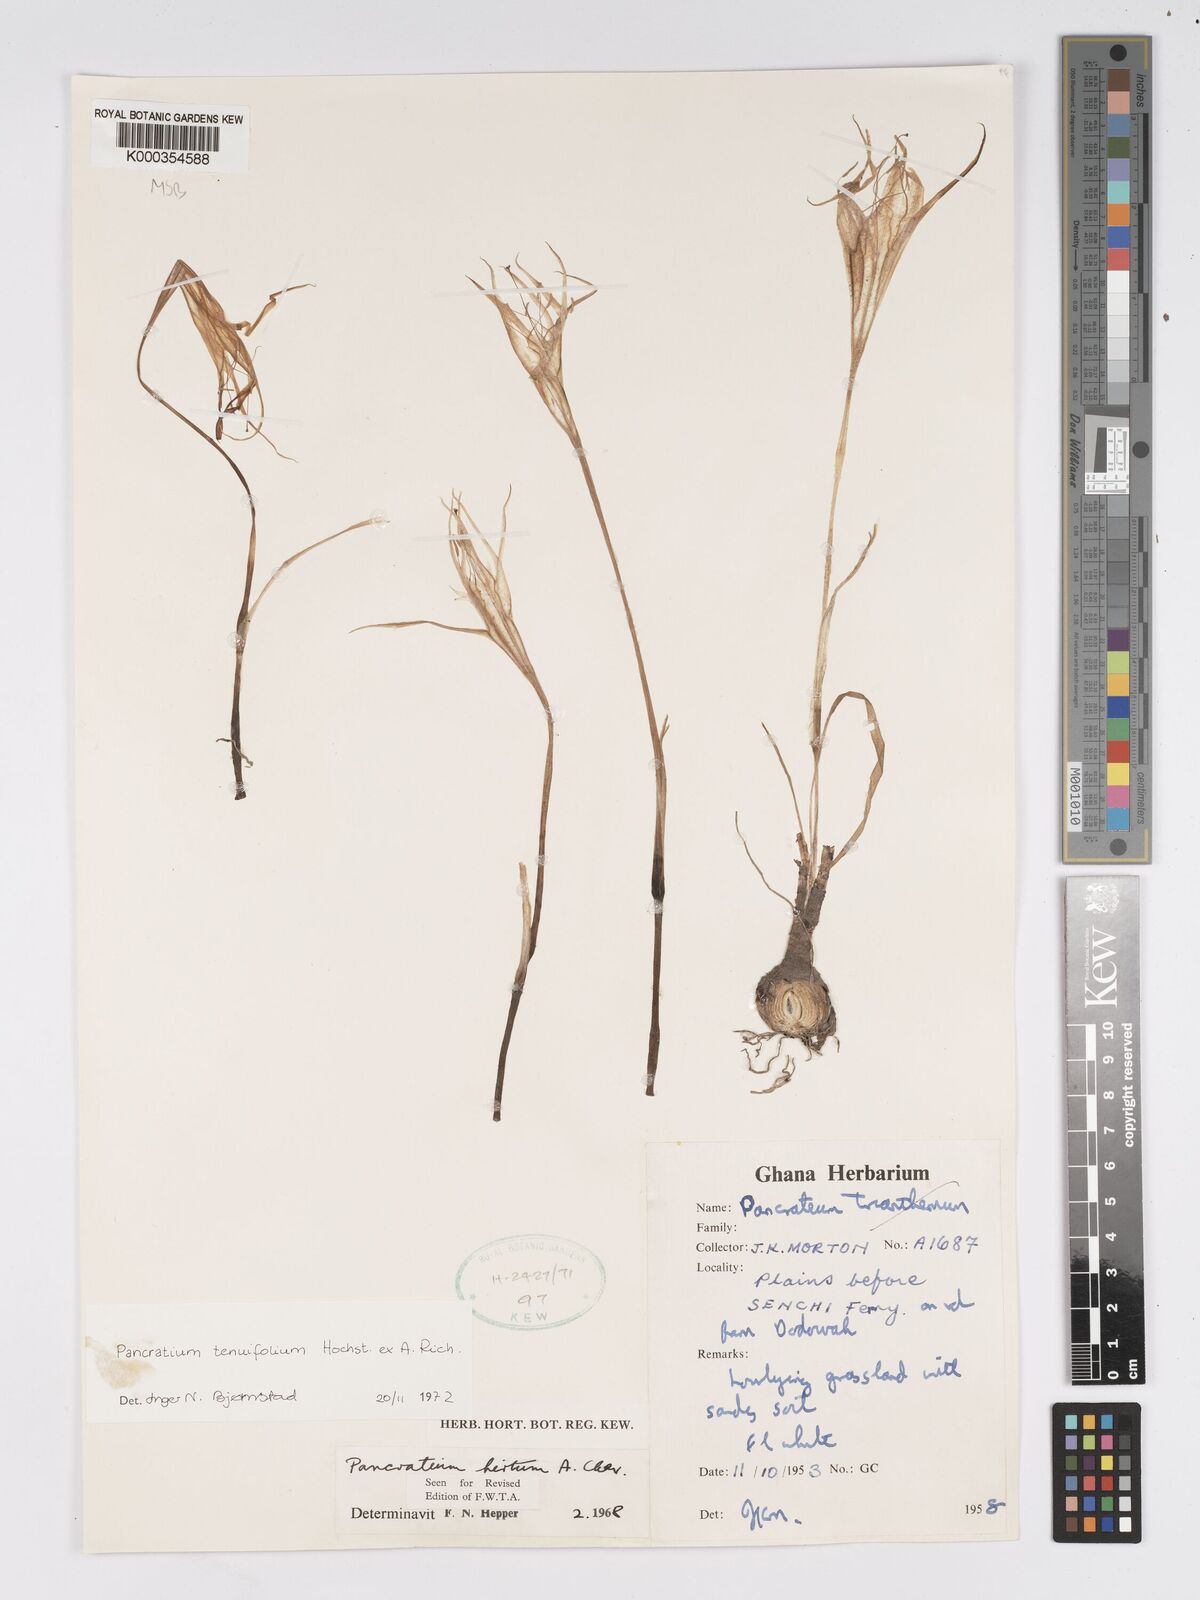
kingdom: Plantae
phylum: Tracheophyta
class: Liliopsida
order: Asparagales
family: Amaryllidaceae
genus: Pancratium
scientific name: Pancratium tenuifolium
